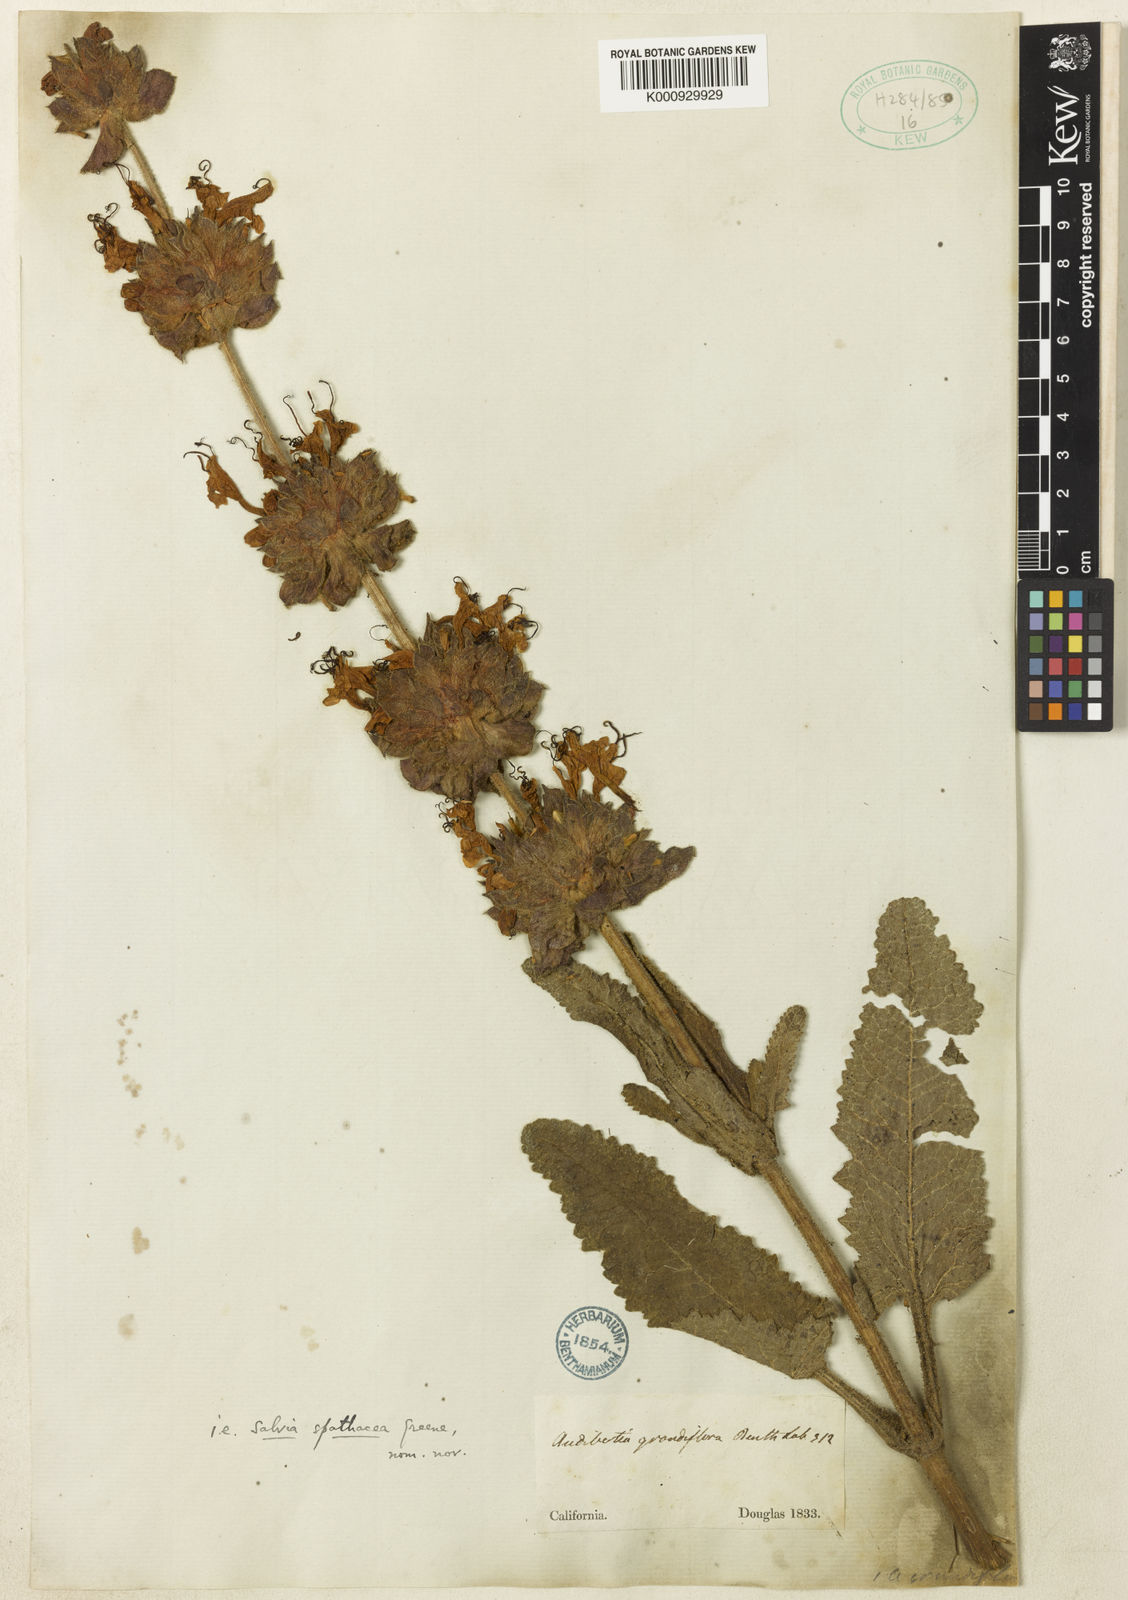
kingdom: Plantae
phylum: Tracheophyta
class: Magnoliopsida
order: Lamiales
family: Lamiaceae
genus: Salvia
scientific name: Salvia spathacea
